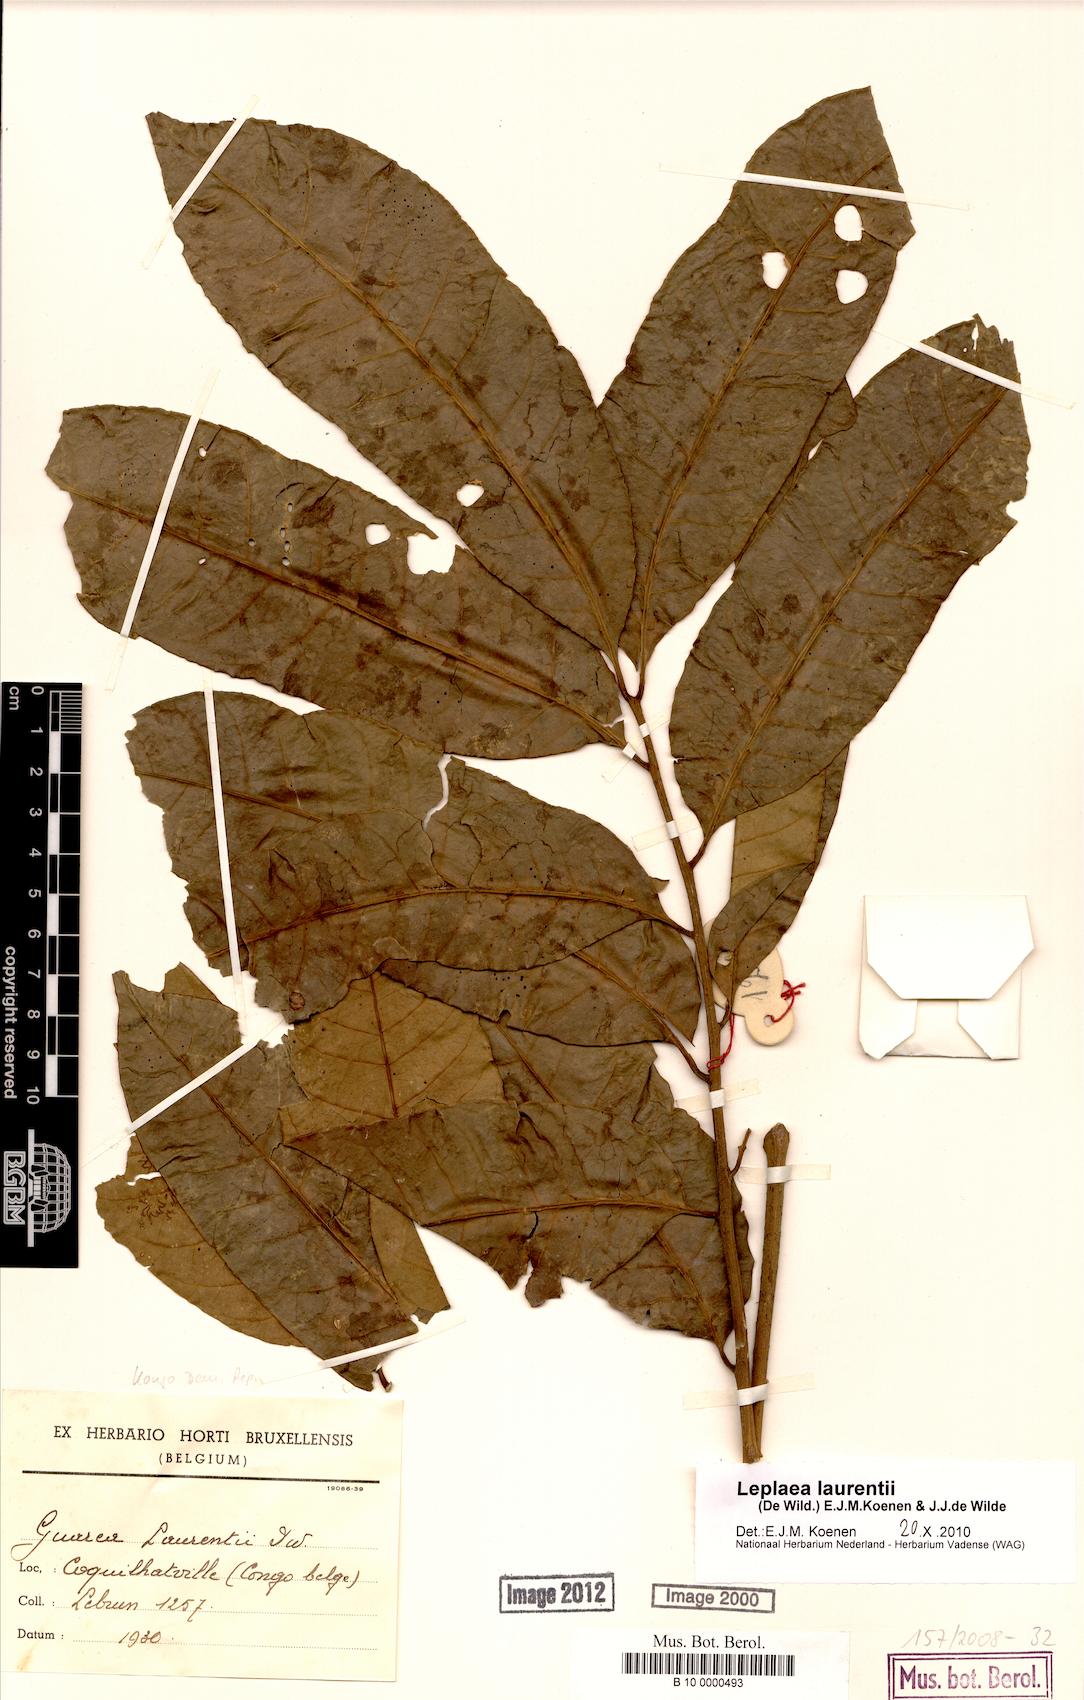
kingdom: Plantae
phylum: Tracheophyta
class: Magnoliopsida
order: Sapindales
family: Meliaceae
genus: Leplaea
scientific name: Leplaea laurentii
